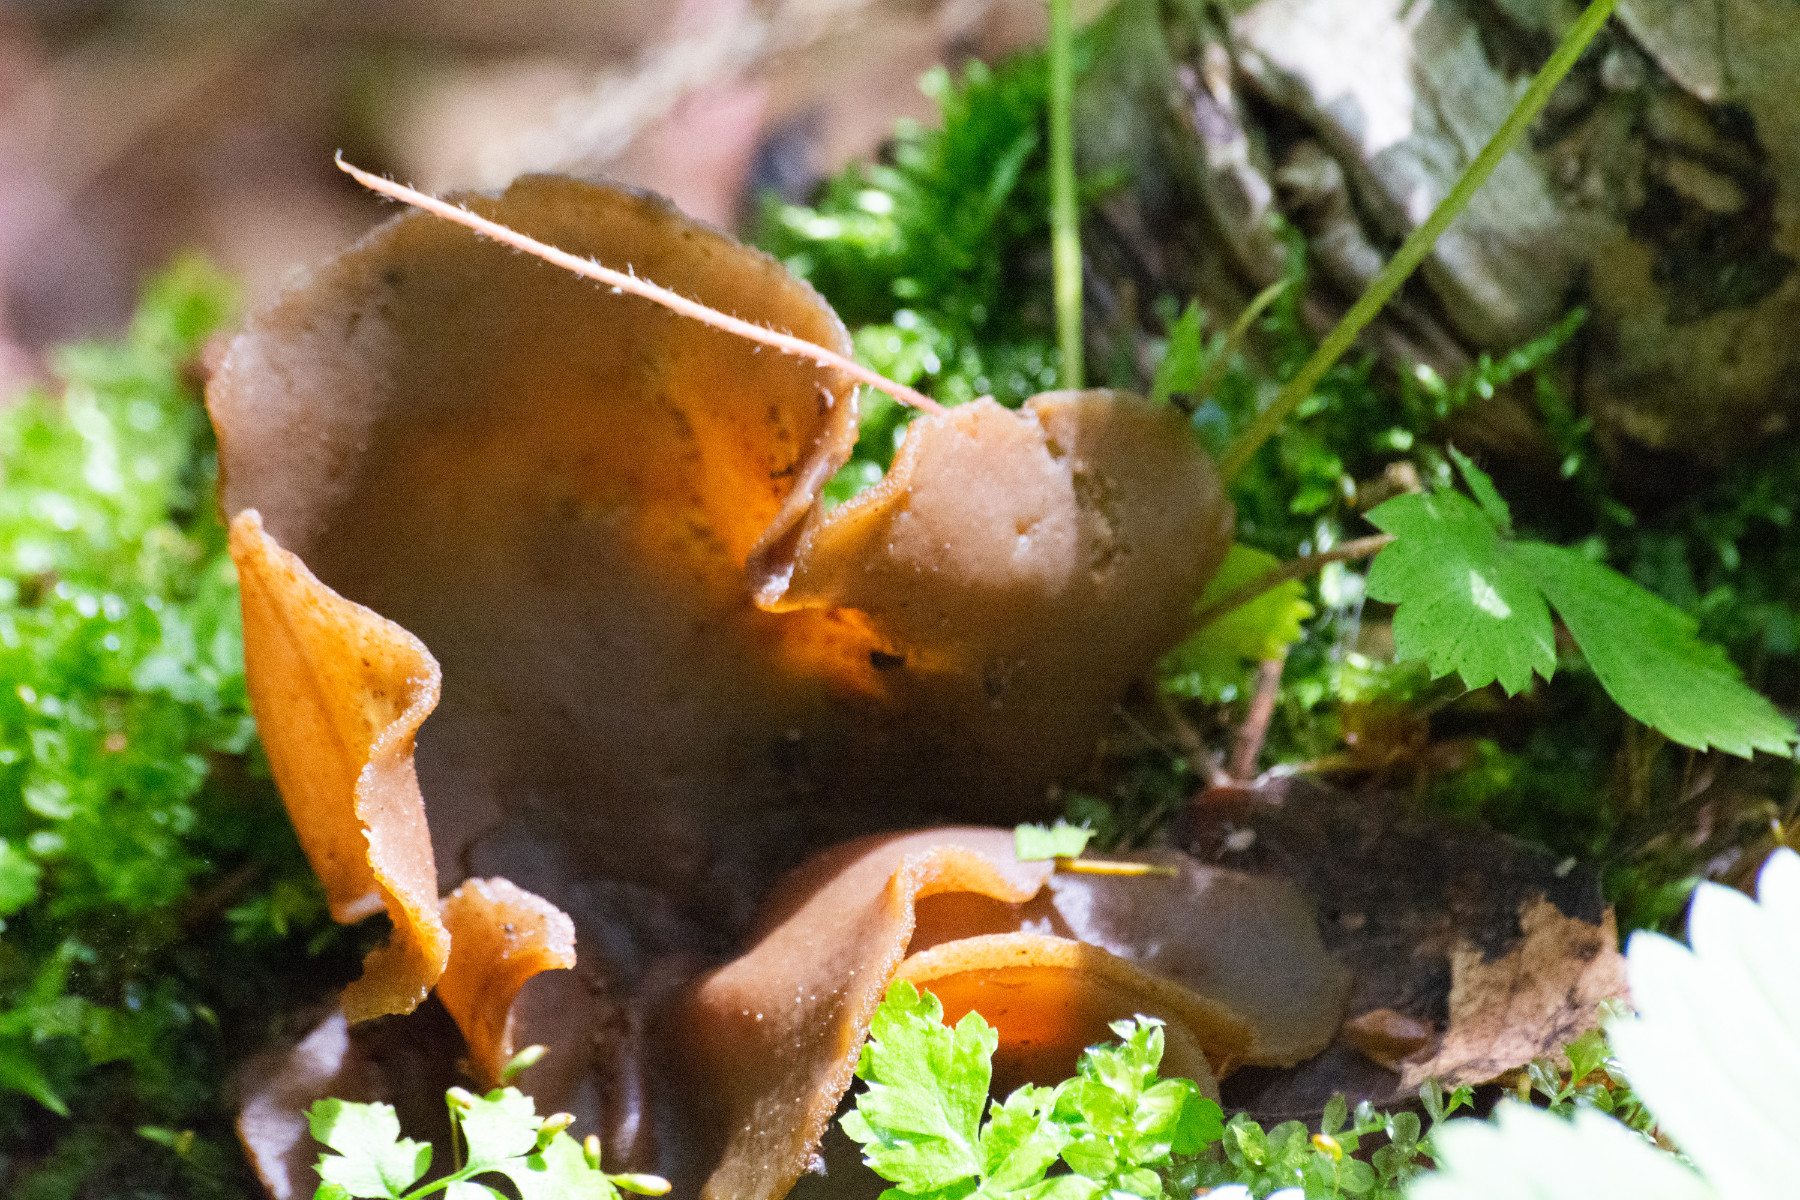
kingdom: Fungi
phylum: Ascomycota
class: Pezizomycetes
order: Pezizales
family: Pezizaceae
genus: Peziza
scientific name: Peziza
